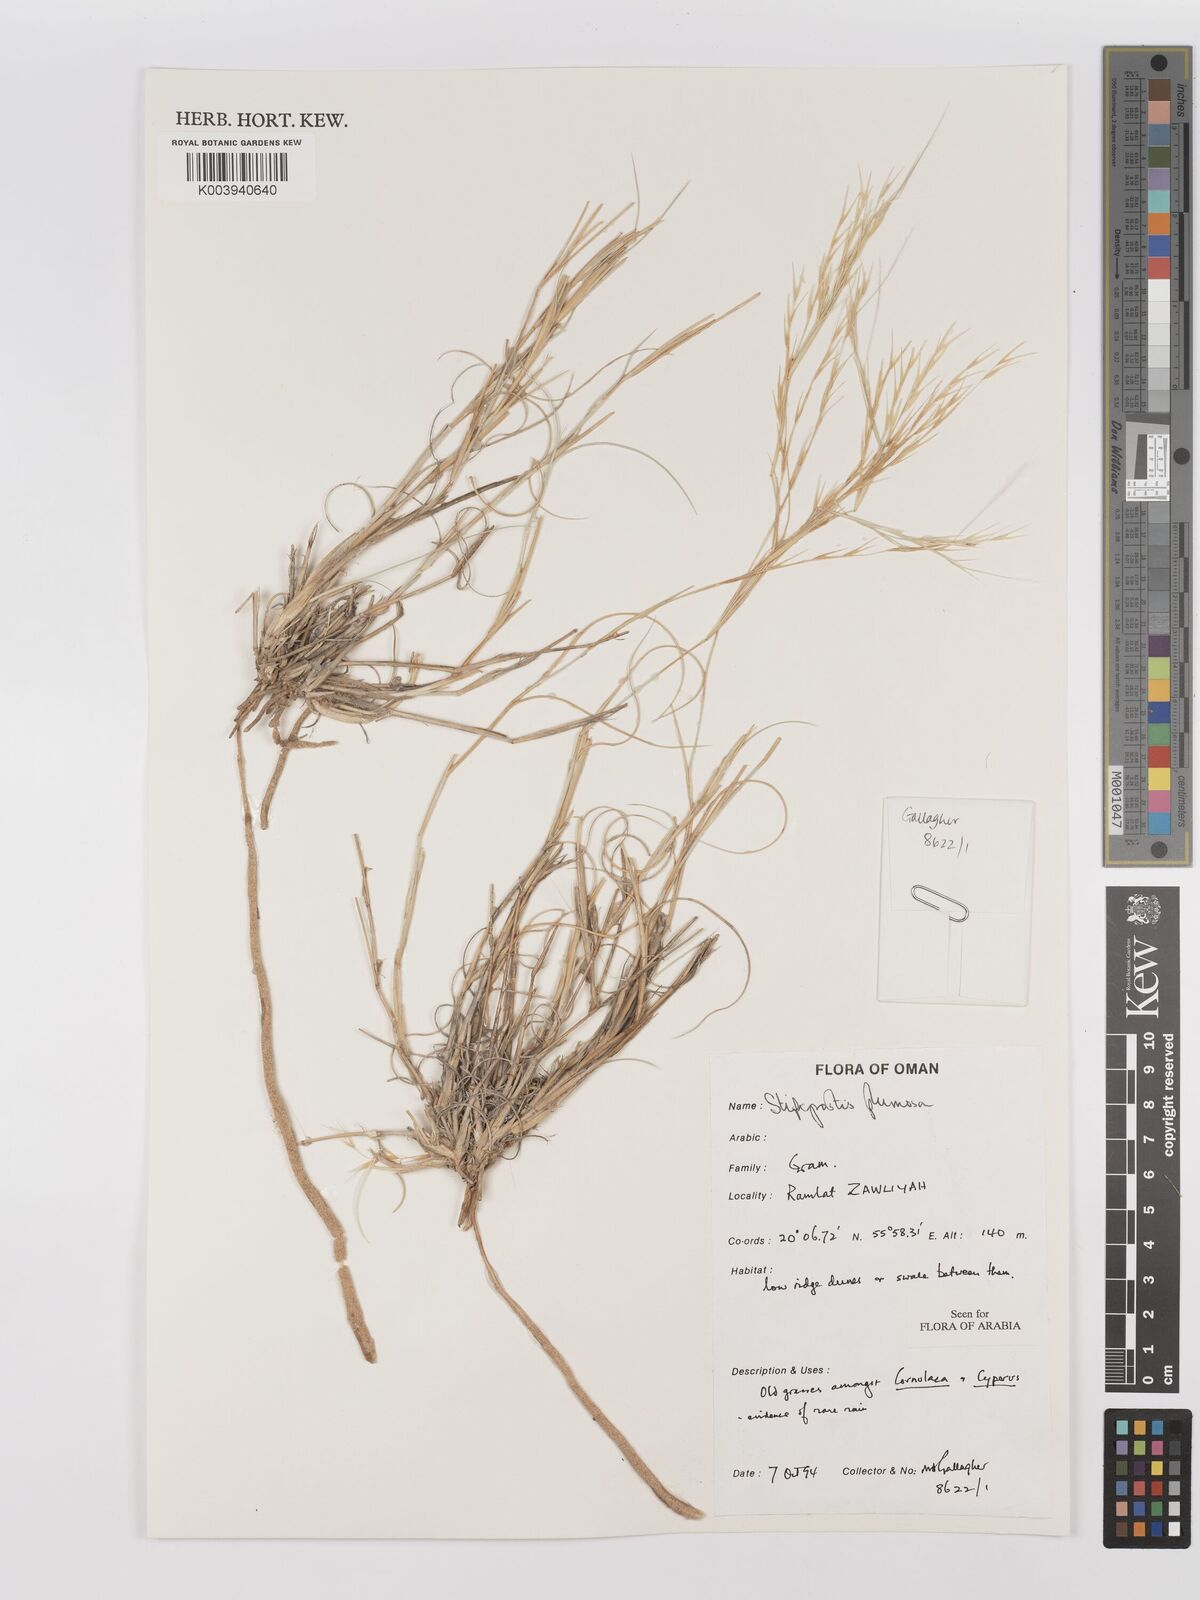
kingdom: Plantae
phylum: Tracheophyta
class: Liliopsida
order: Poales
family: Poaceae
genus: Stipagrostis
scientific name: Stipagrostis plumosa
